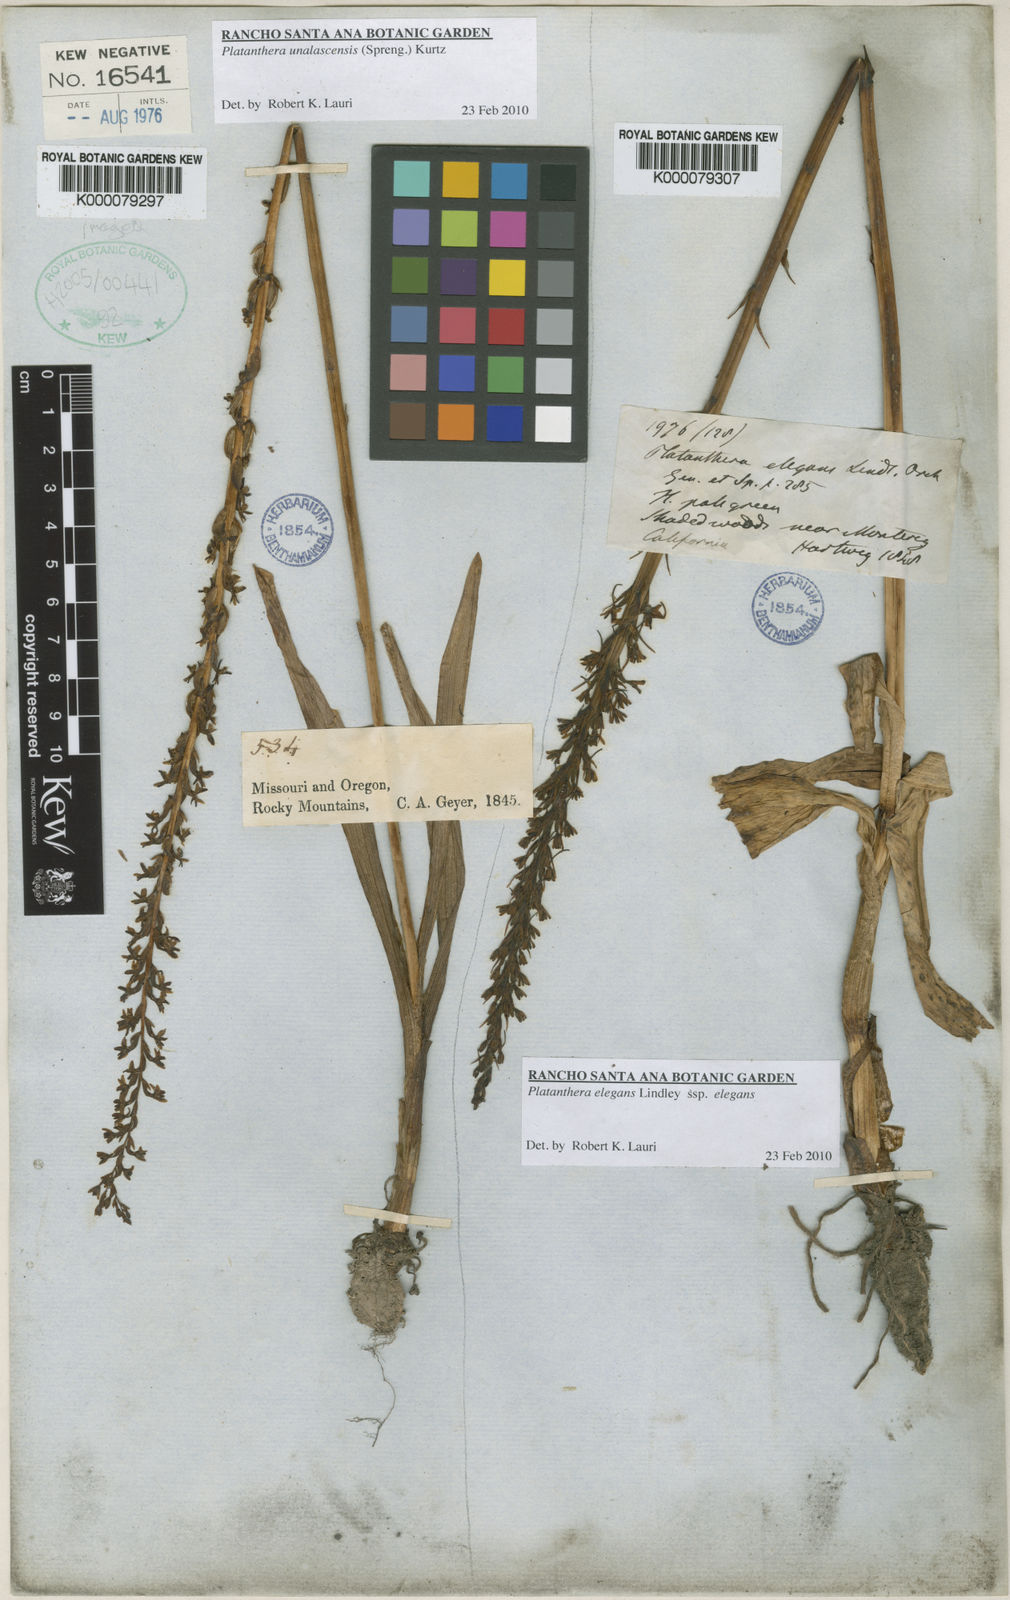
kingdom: Plantae
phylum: Tracheophyta
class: Liliopsida
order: Asparagales
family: Orchidaceae
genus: Platanthera
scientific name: Platanthera unalascensis
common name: Alaska bog orchid
